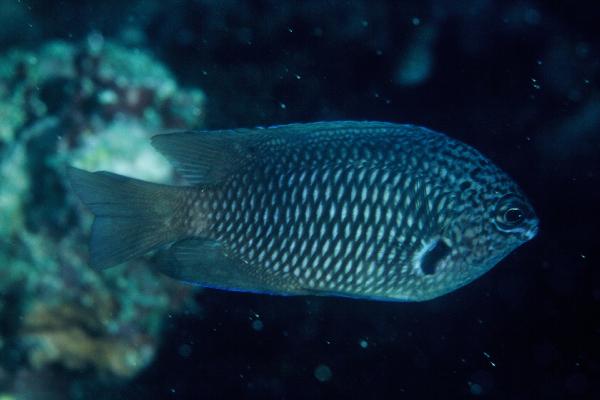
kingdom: Animalia
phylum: Chordata
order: Perciformes
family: Pomacentridae
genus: Pomacentrus
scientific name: Pomacentrus indicus
